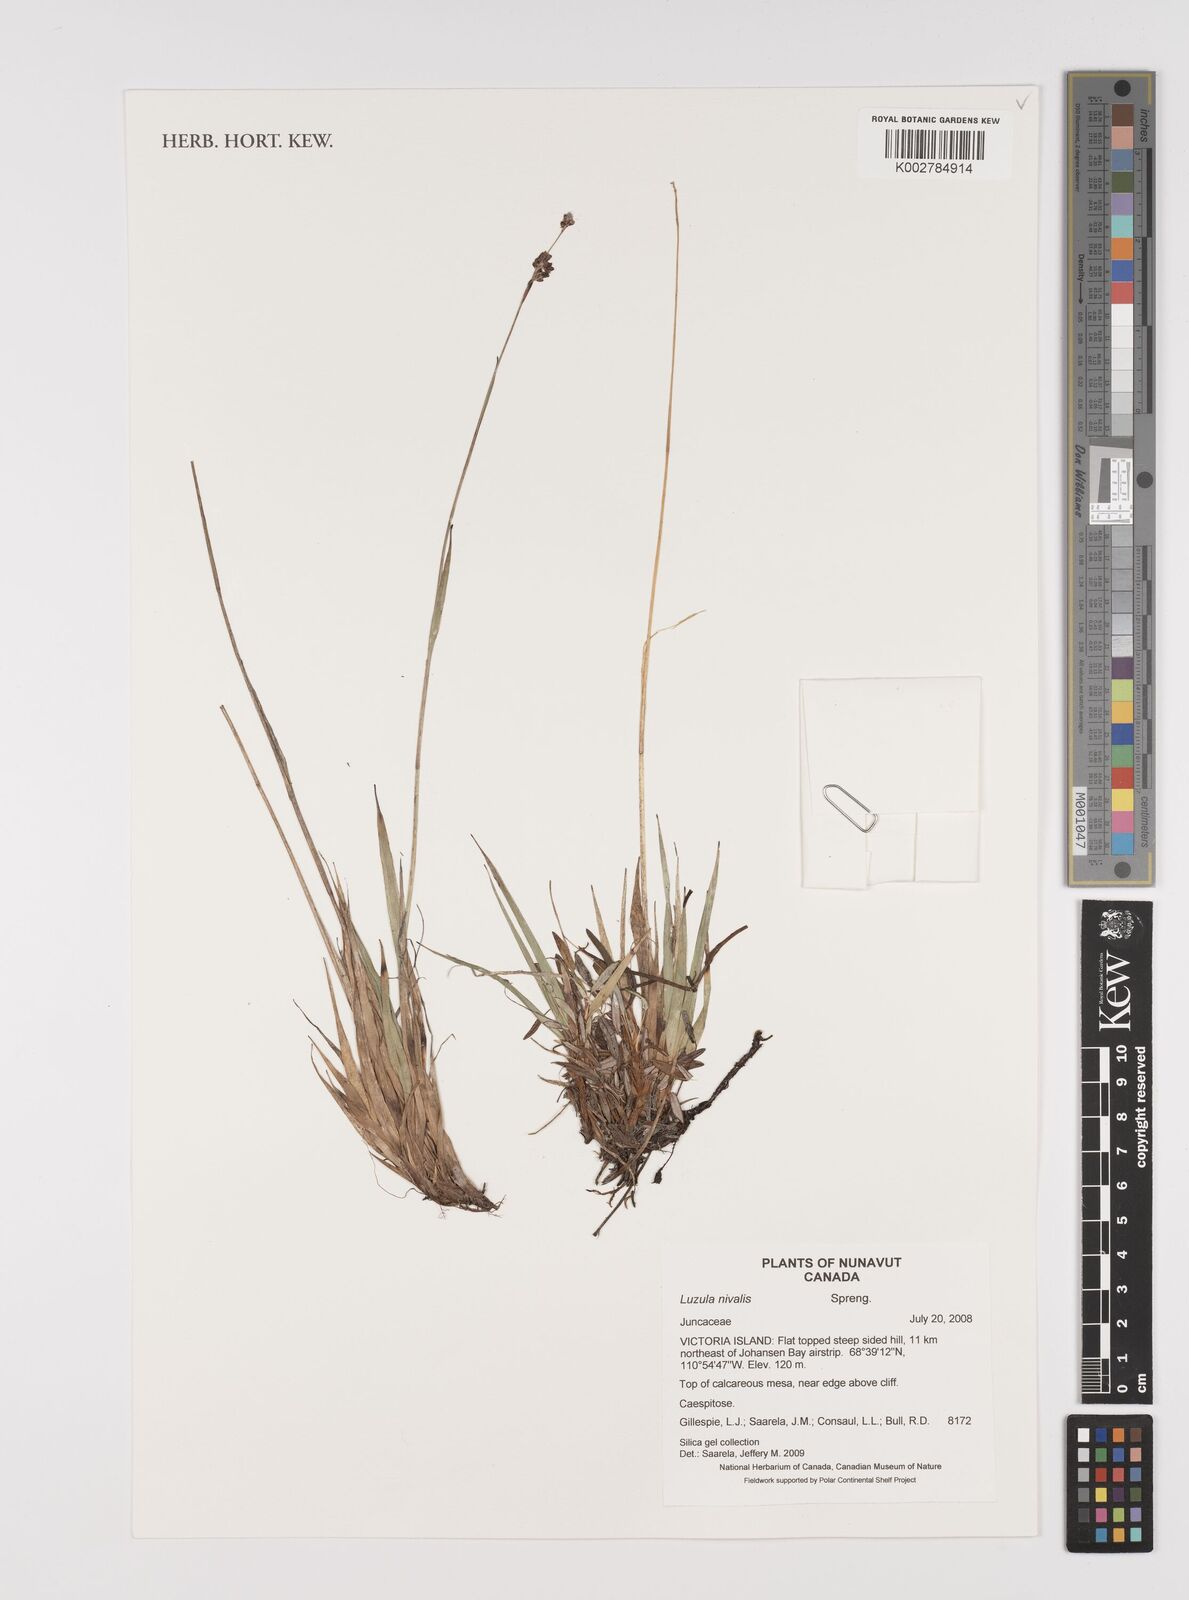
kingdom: Plantae
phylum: Tracheophyta
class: Liliopsida
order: Poales
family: Juncaceae
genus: Luzula
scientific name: Luzula nivalis
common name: Arctic woodrush
